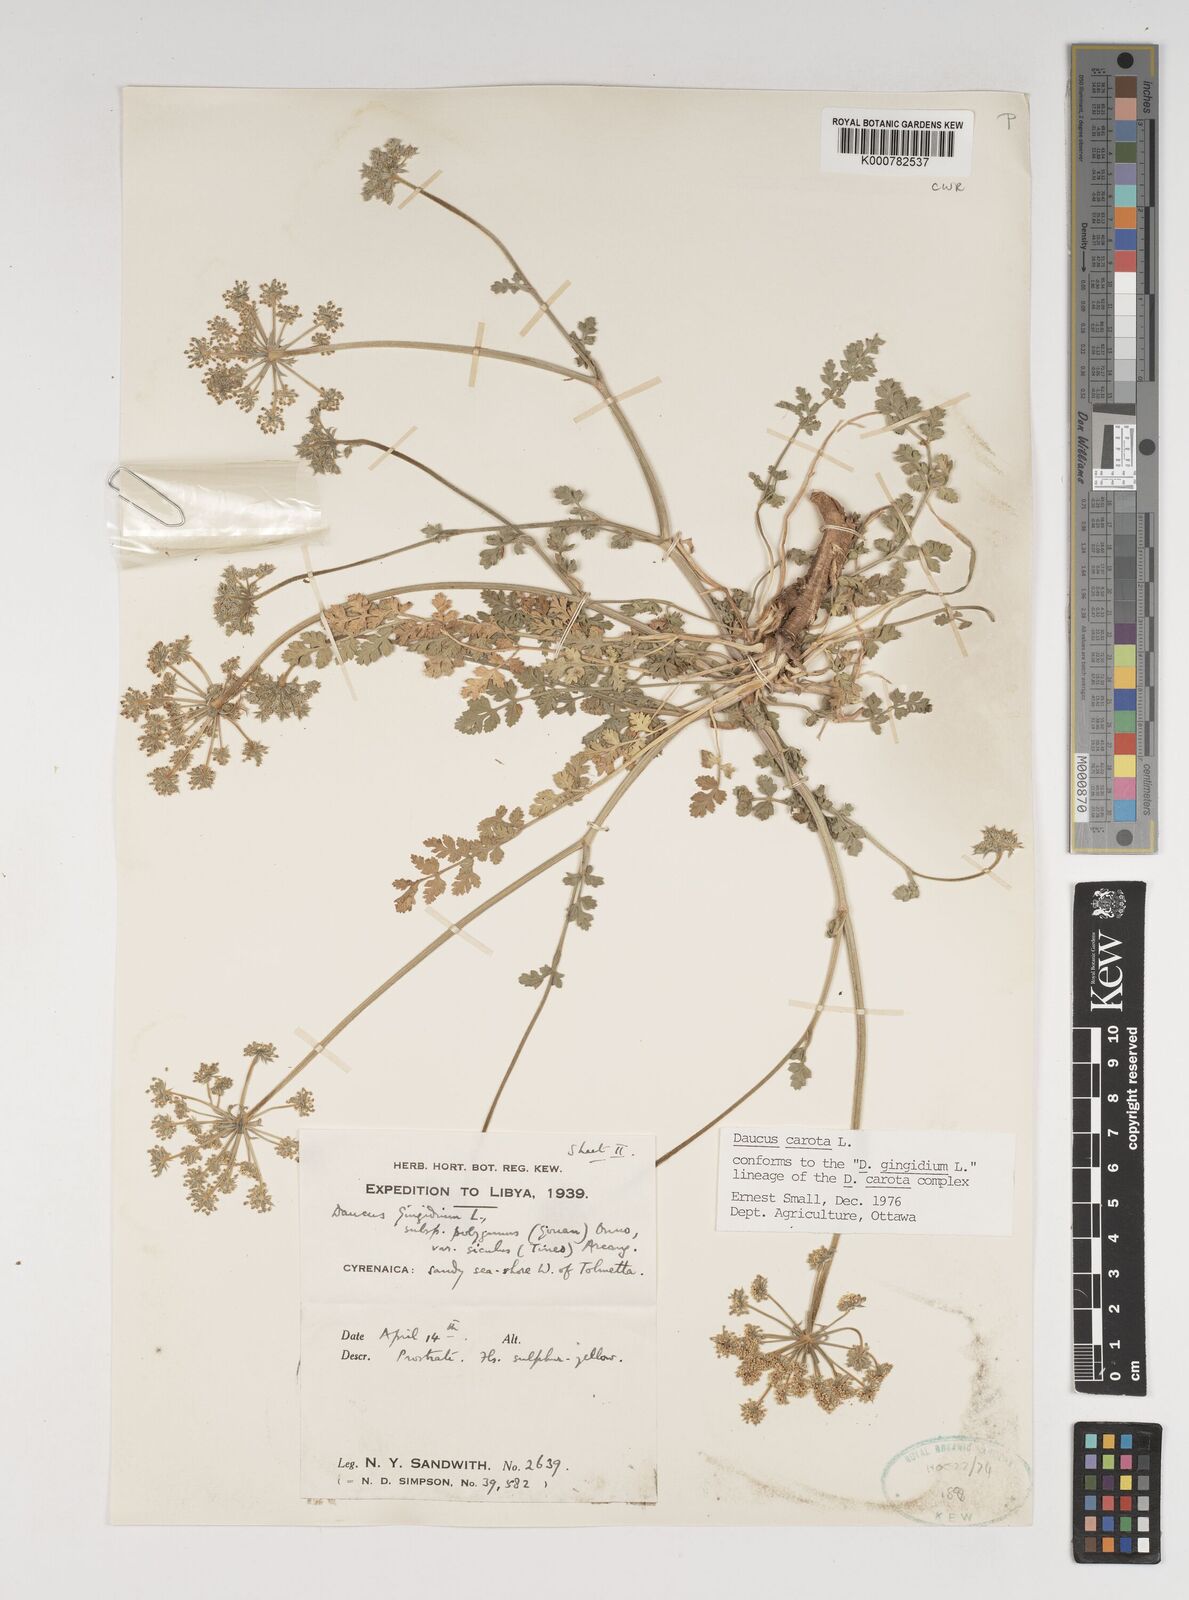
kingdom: Plantae
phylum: Tracheophyta
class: Magnoliopsida
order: Apiales
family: Apiaceae
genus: Daucus
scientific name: Daucus carota
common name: Wild carrot
